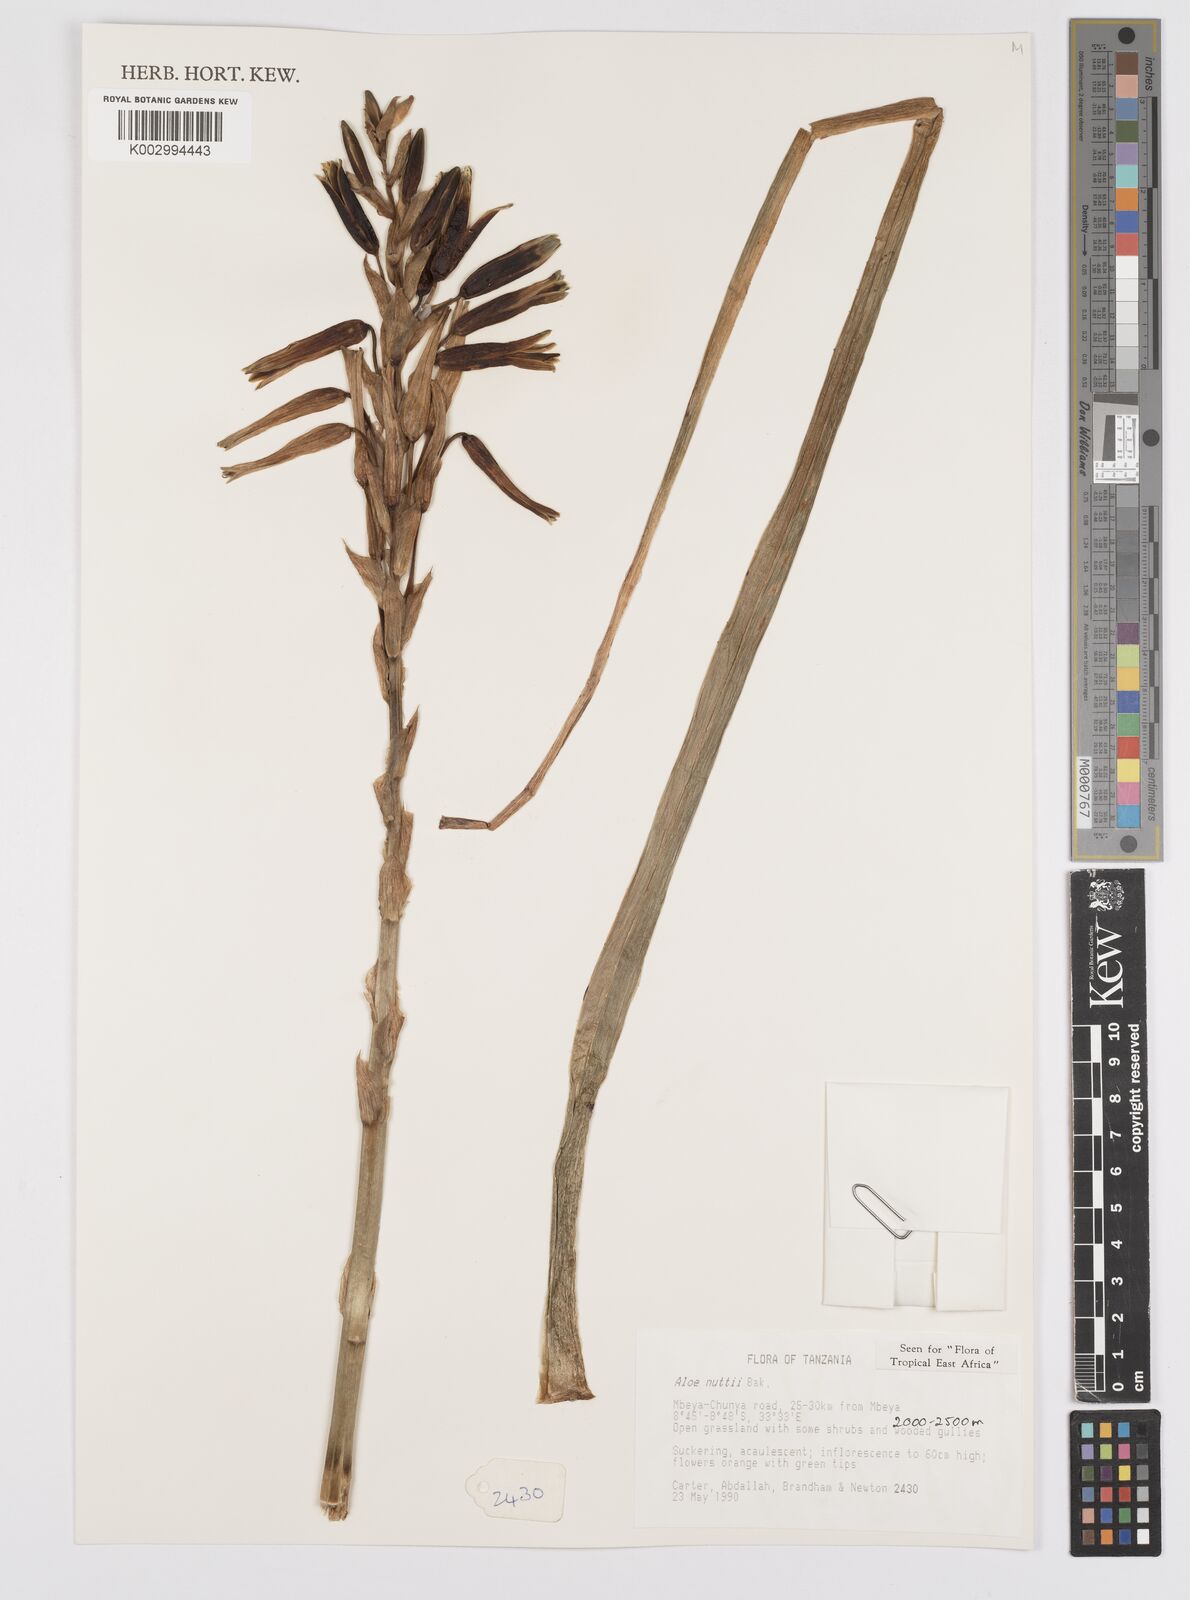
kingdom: Plantae
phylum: Tracheophyta
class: Liliopsida
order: Asparagales
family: Asphodelaceae
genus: Aloe
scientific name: Aloe nuttii
